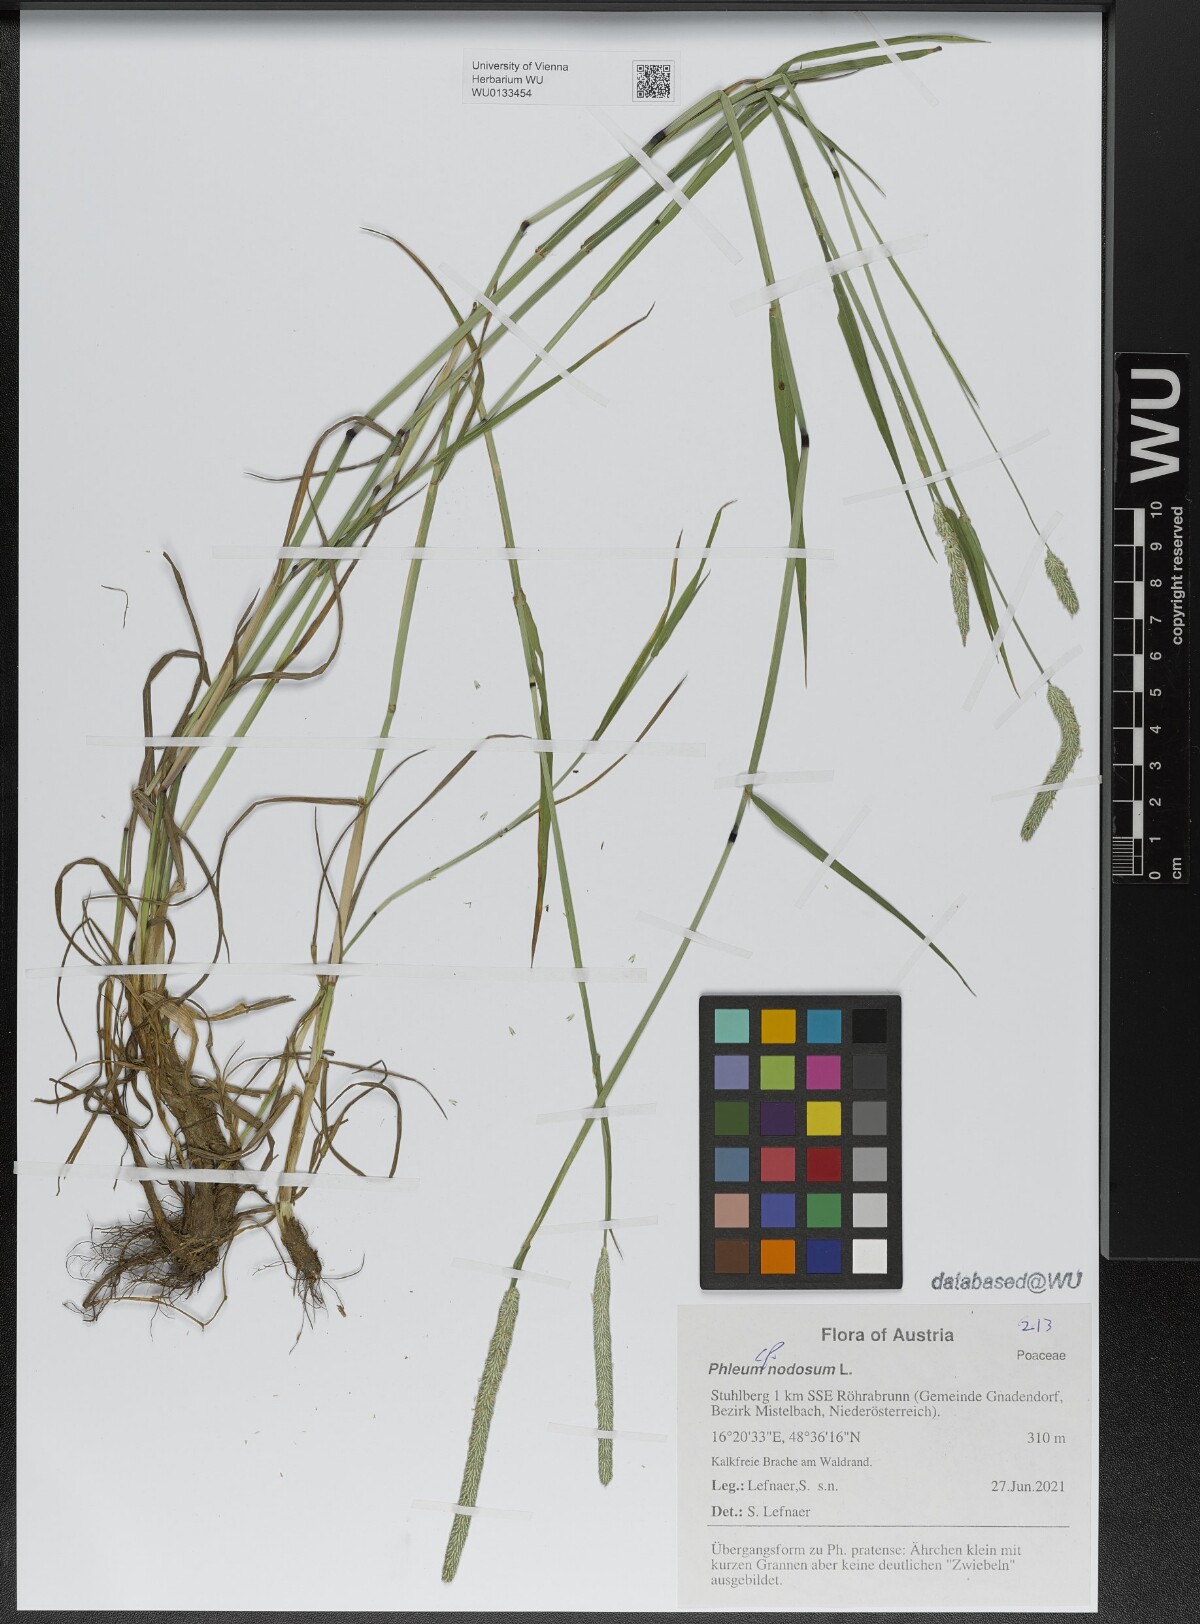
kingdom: Plantae
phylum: Tracheophyta
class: Liliopsida
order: Poales
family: Poaceae
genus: Phleum
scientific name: Phleum pratense
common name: Timothy grass
